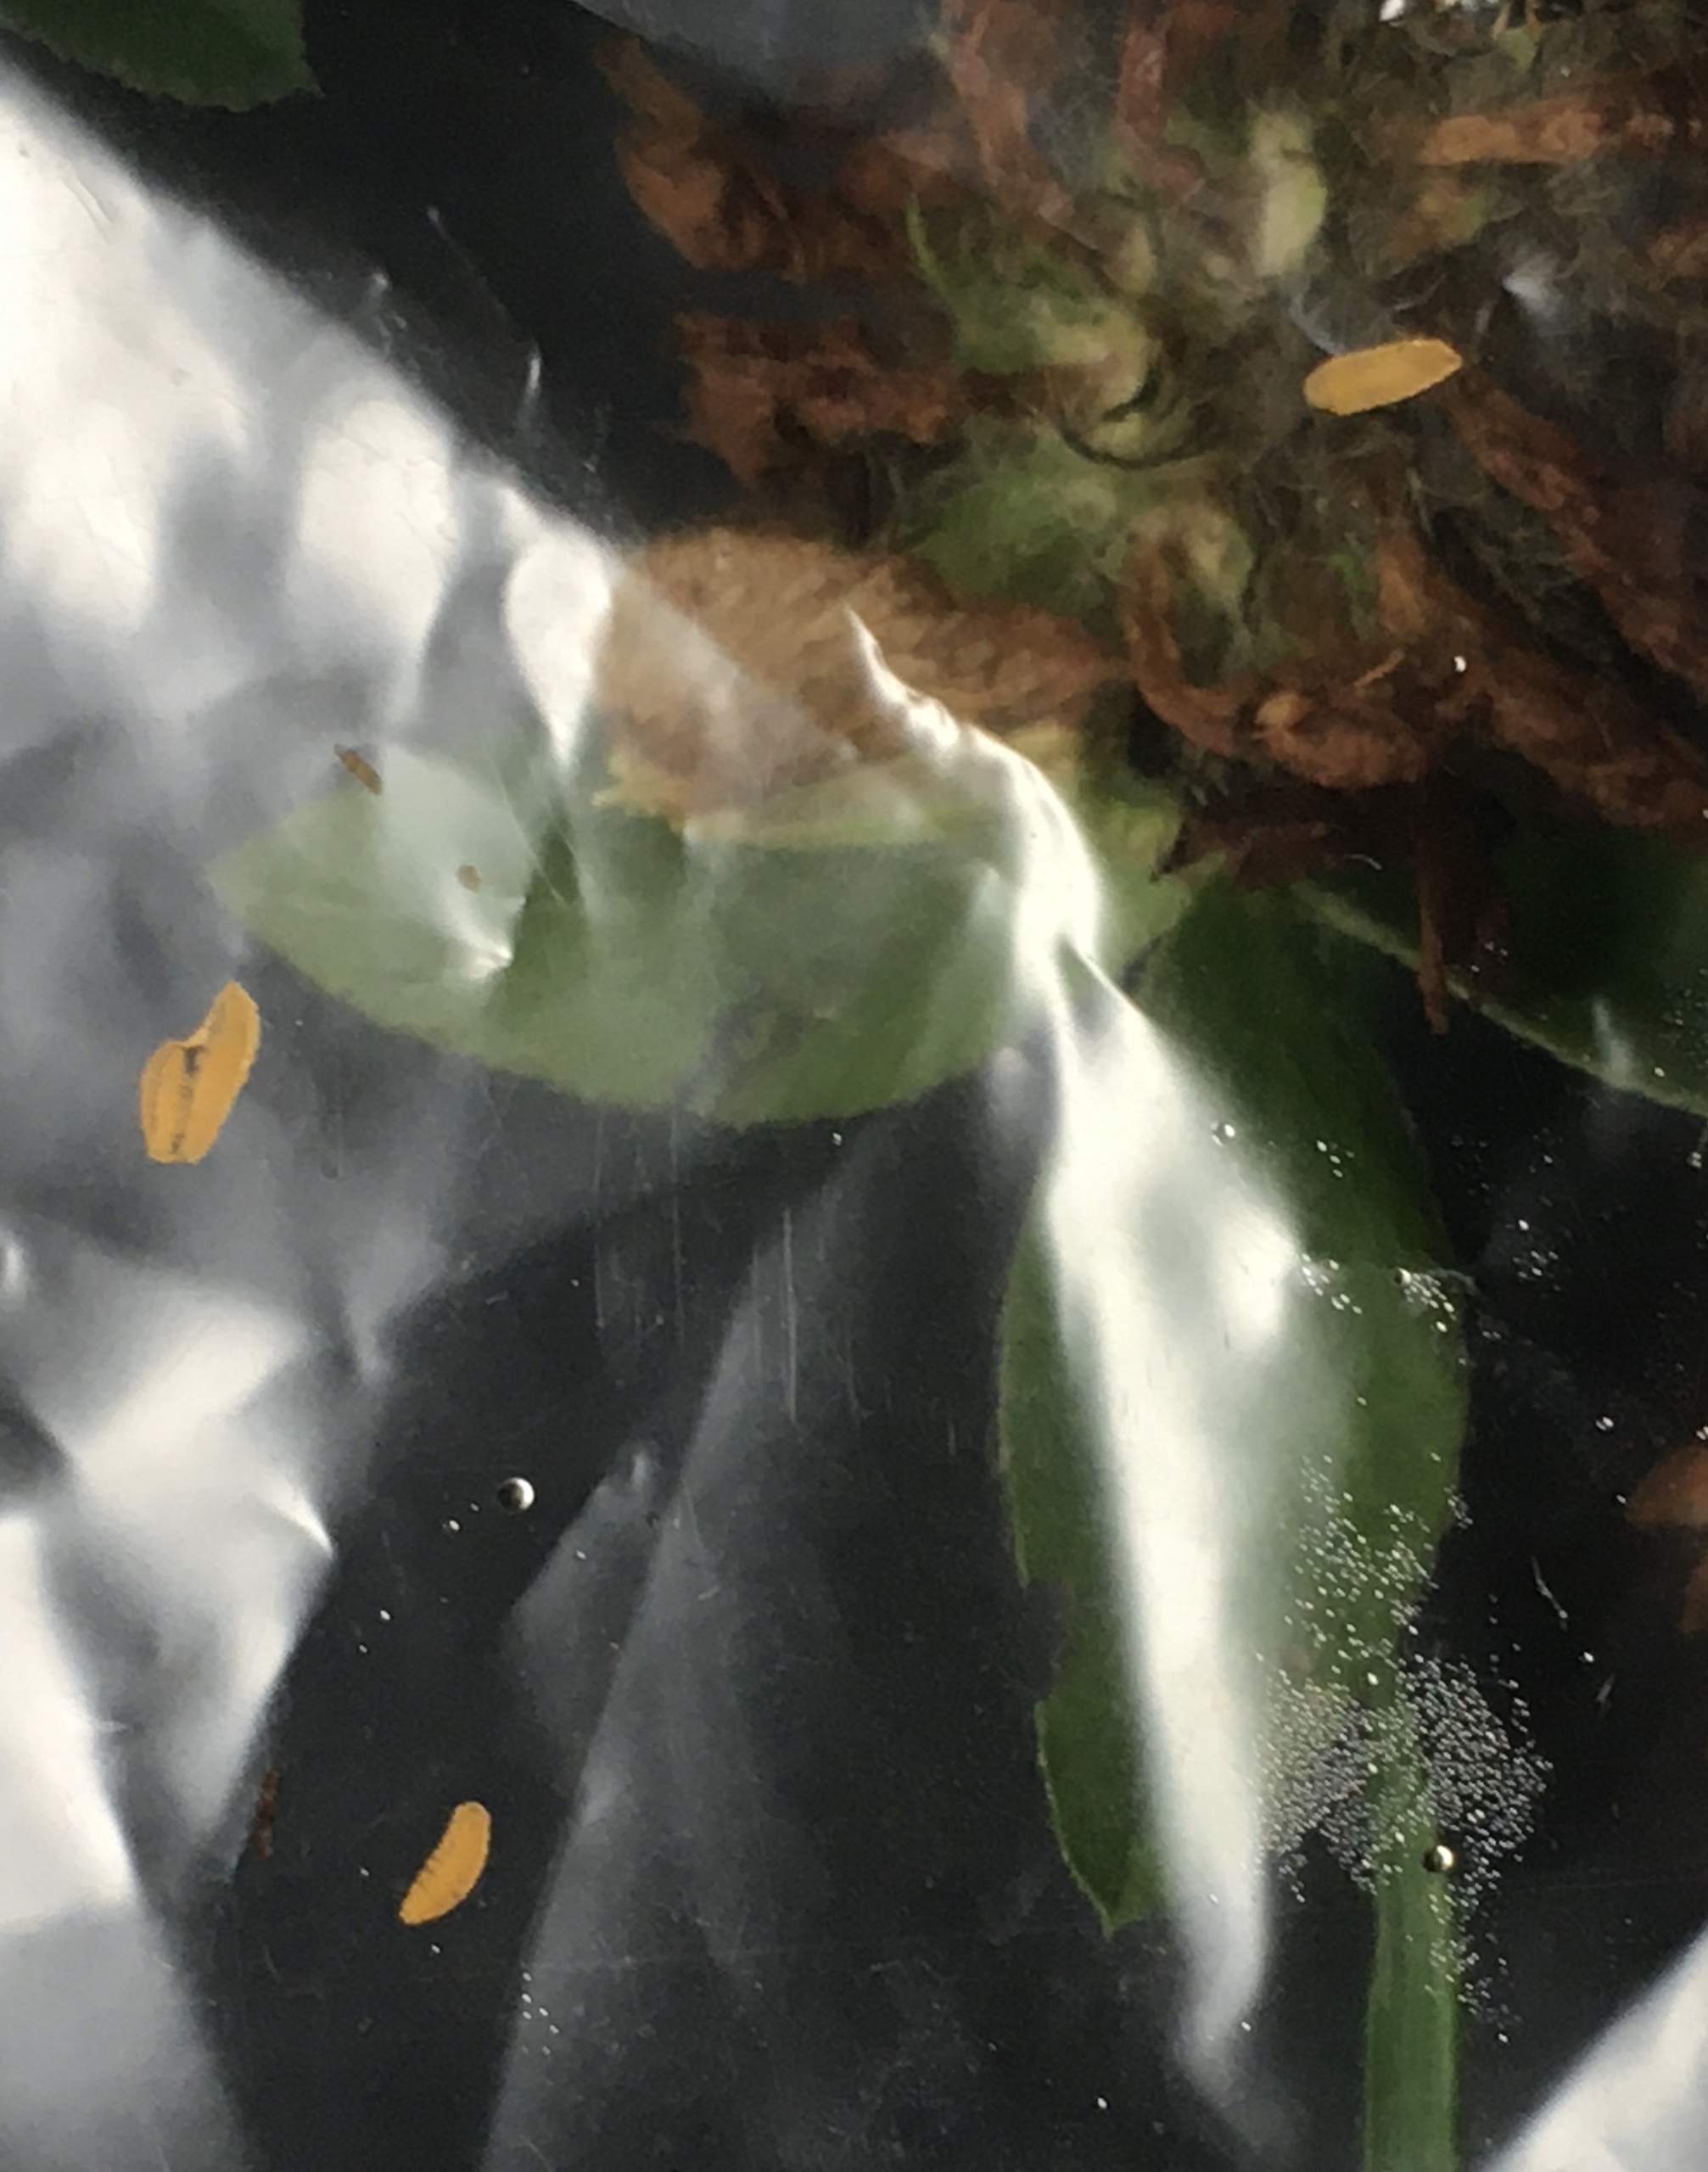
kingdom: Animalia
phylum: Arthropoda
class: Insecta
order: Diptera
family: Cecidomyiidae
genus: Dasineura
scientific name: Dasineura leguminicola
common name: Kløverblomstgalmyg
